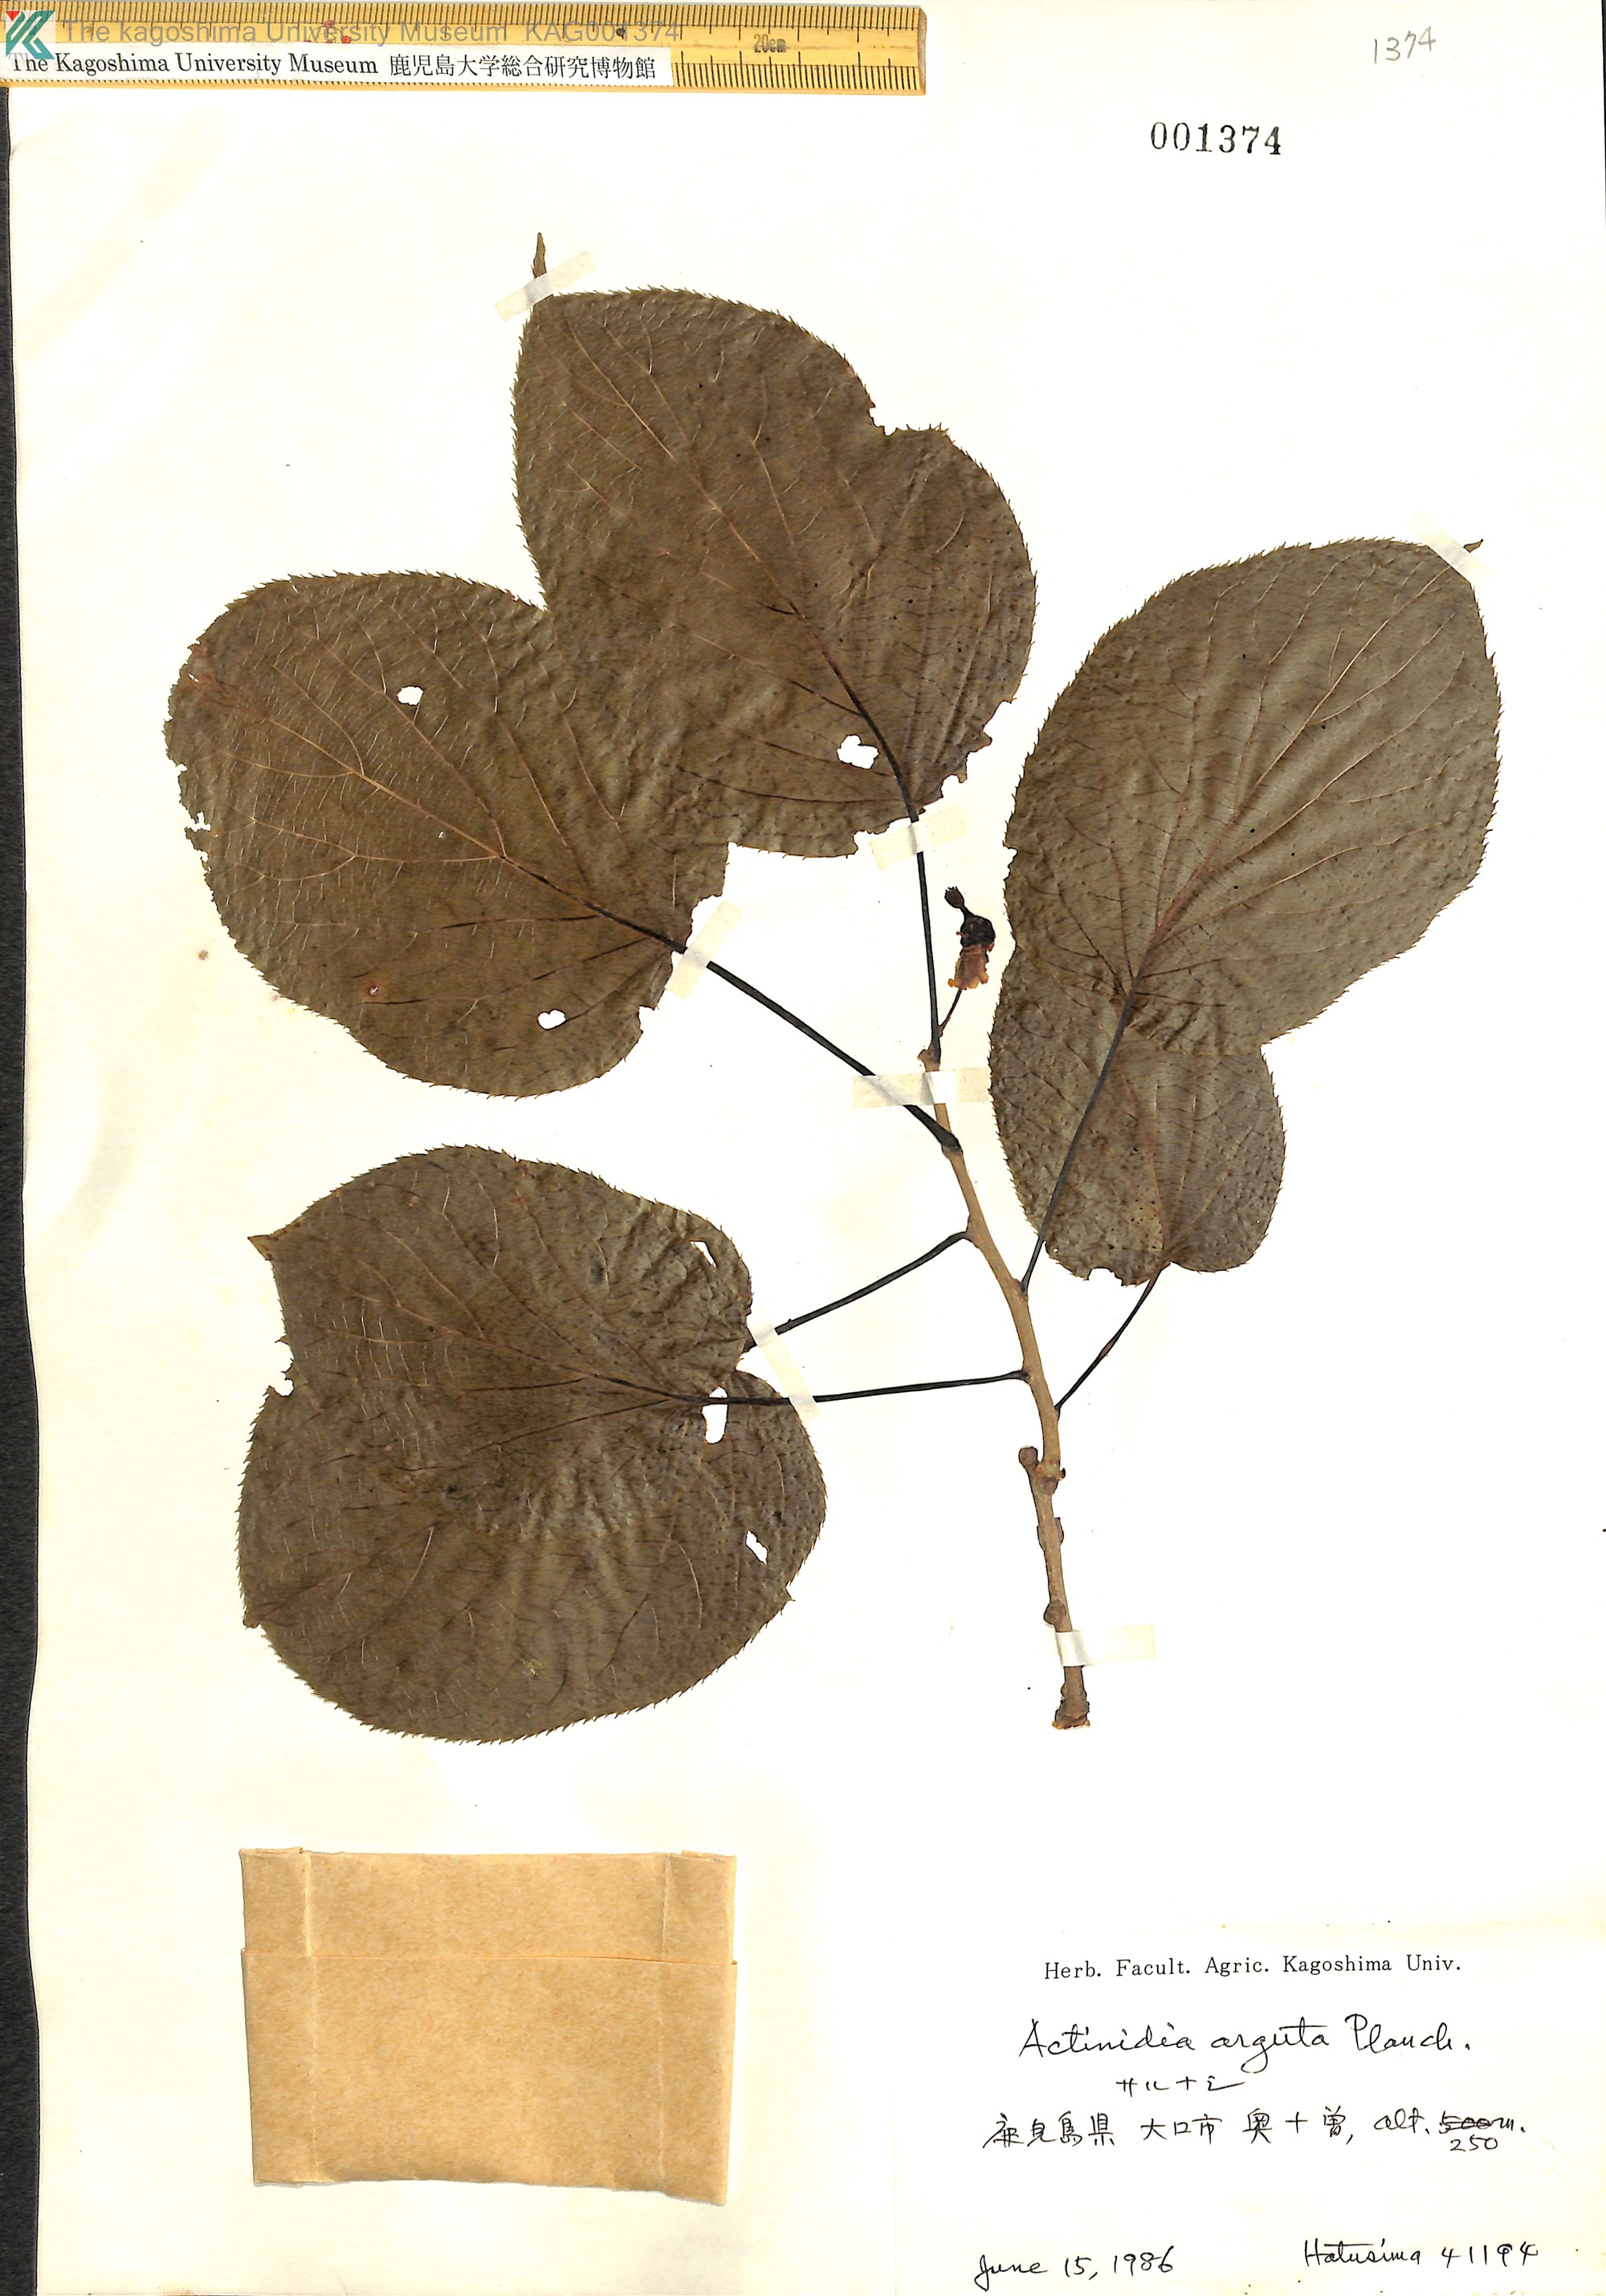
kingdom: Plantae
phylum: Tracheophyta
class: Magnoliopsida
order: Ericales
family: Actinidiaceae
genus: Actinidia
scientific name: Actinidia arguta
